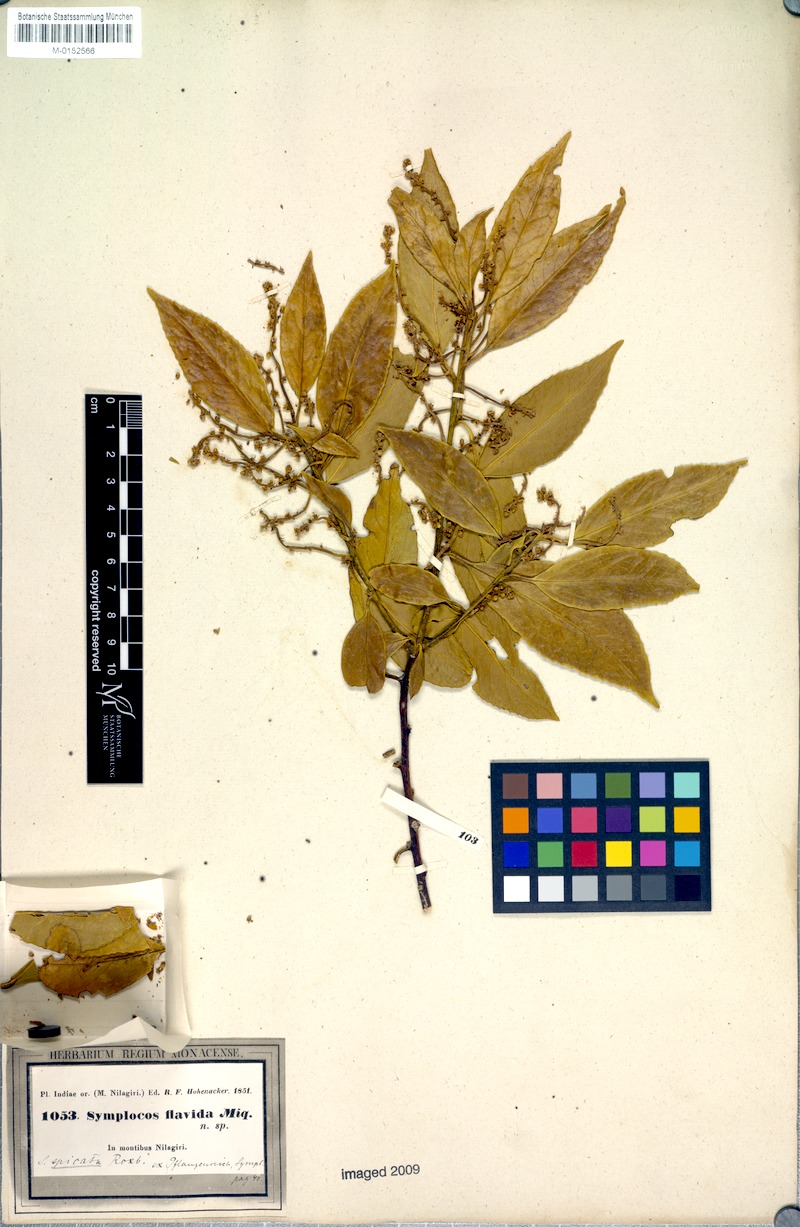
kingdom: Plantae
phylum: Tracheophyta
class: Magnoliopsida
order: Ericales
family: Symplocaceae
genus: Symplocos
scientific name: Symplocos acuminata
